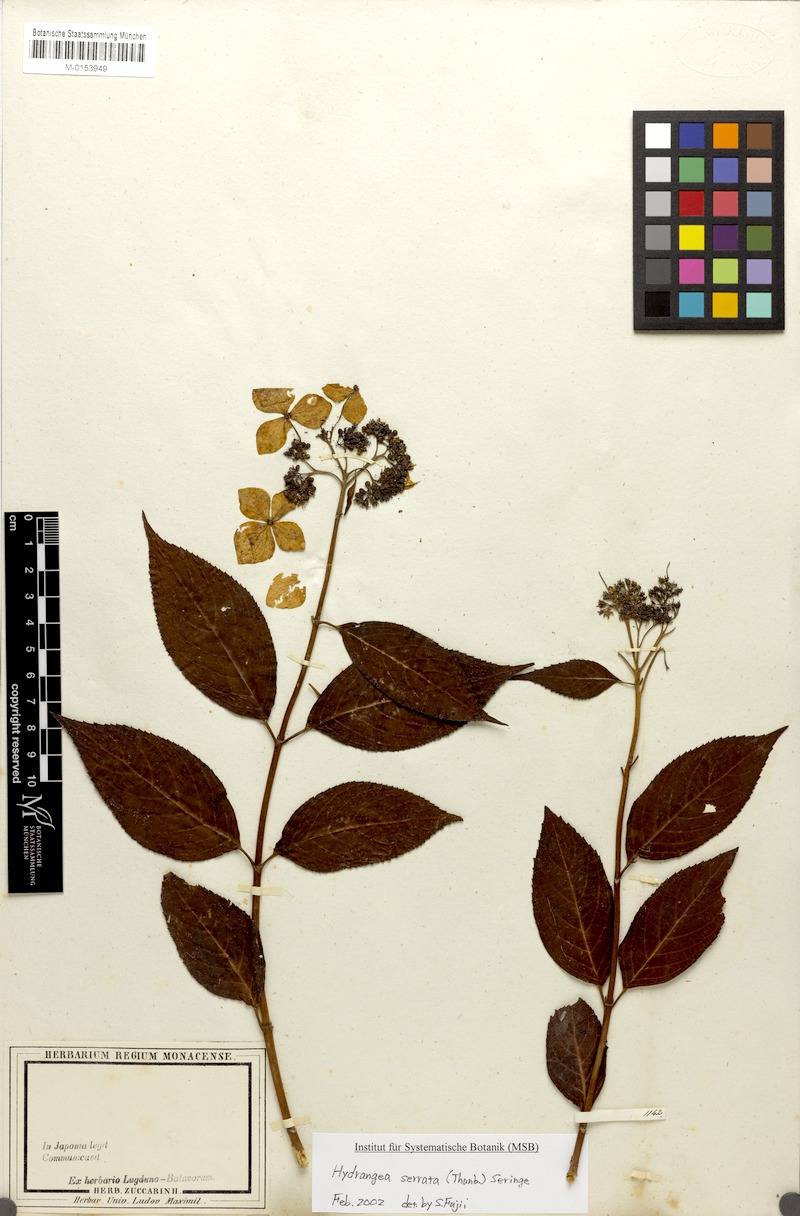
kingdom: Plantae
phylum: Tracheophyta
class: Magnoliopsida
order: Cornales
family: Hydrangeaceae
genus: Hydrangea
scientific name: Hydrangea serrata
